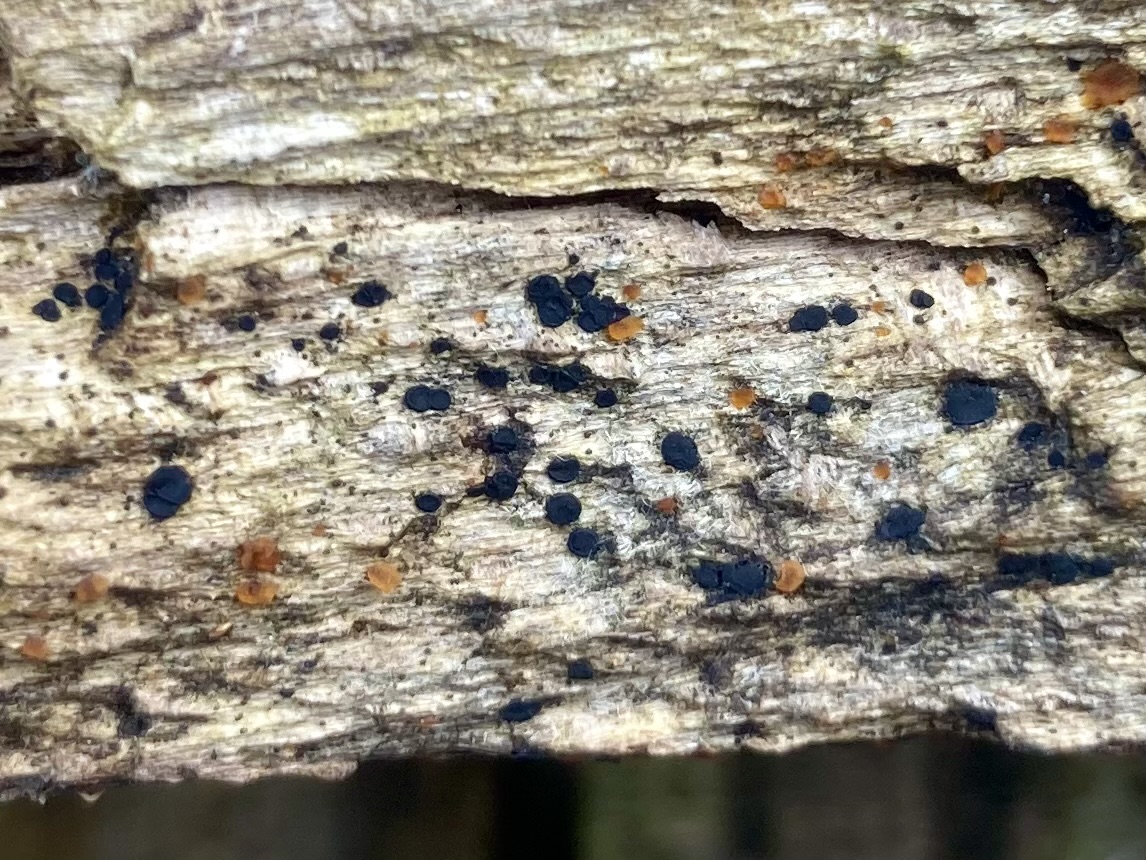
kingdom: Fungi
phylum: Ascomycota
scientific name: Ascomycota
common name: sæksvampe
